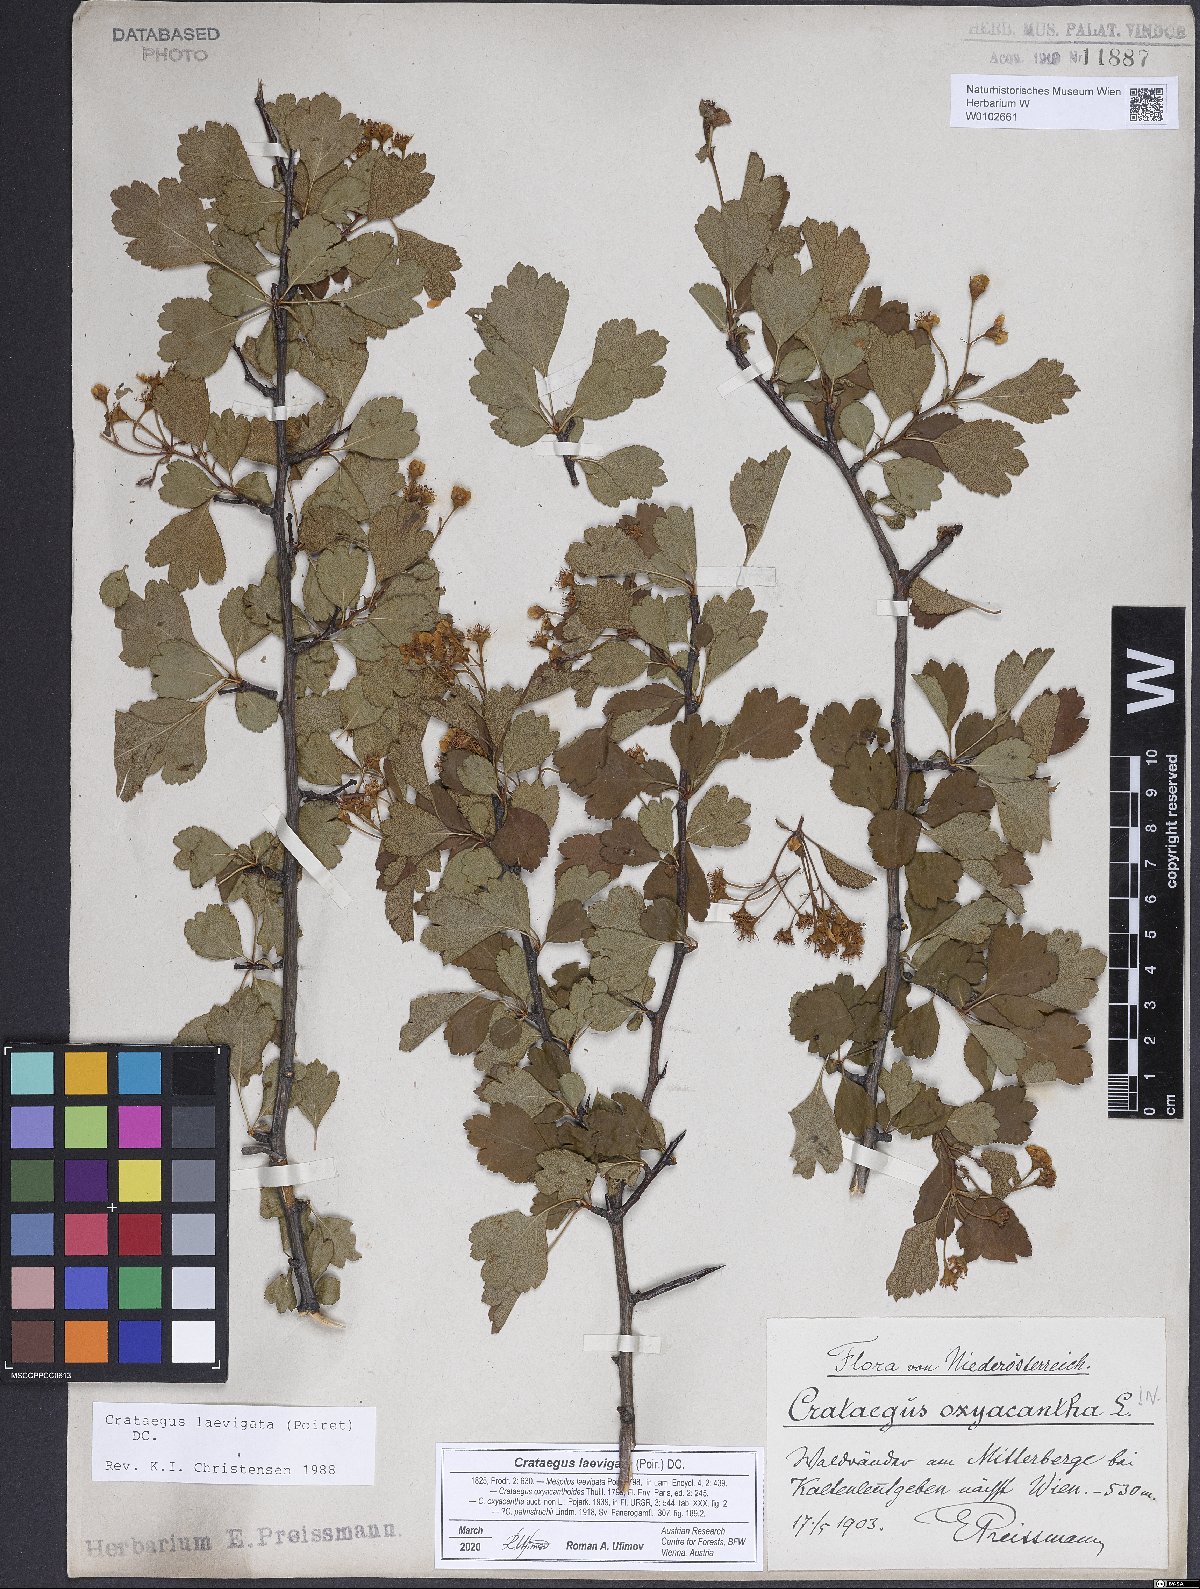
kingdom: Plantae
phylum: Tracheophyta
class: Magnoliopsida
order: Rosales
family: Rosaceae
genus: Crataegus
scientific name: Crataegus laevigata
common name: Midland hawthorn
